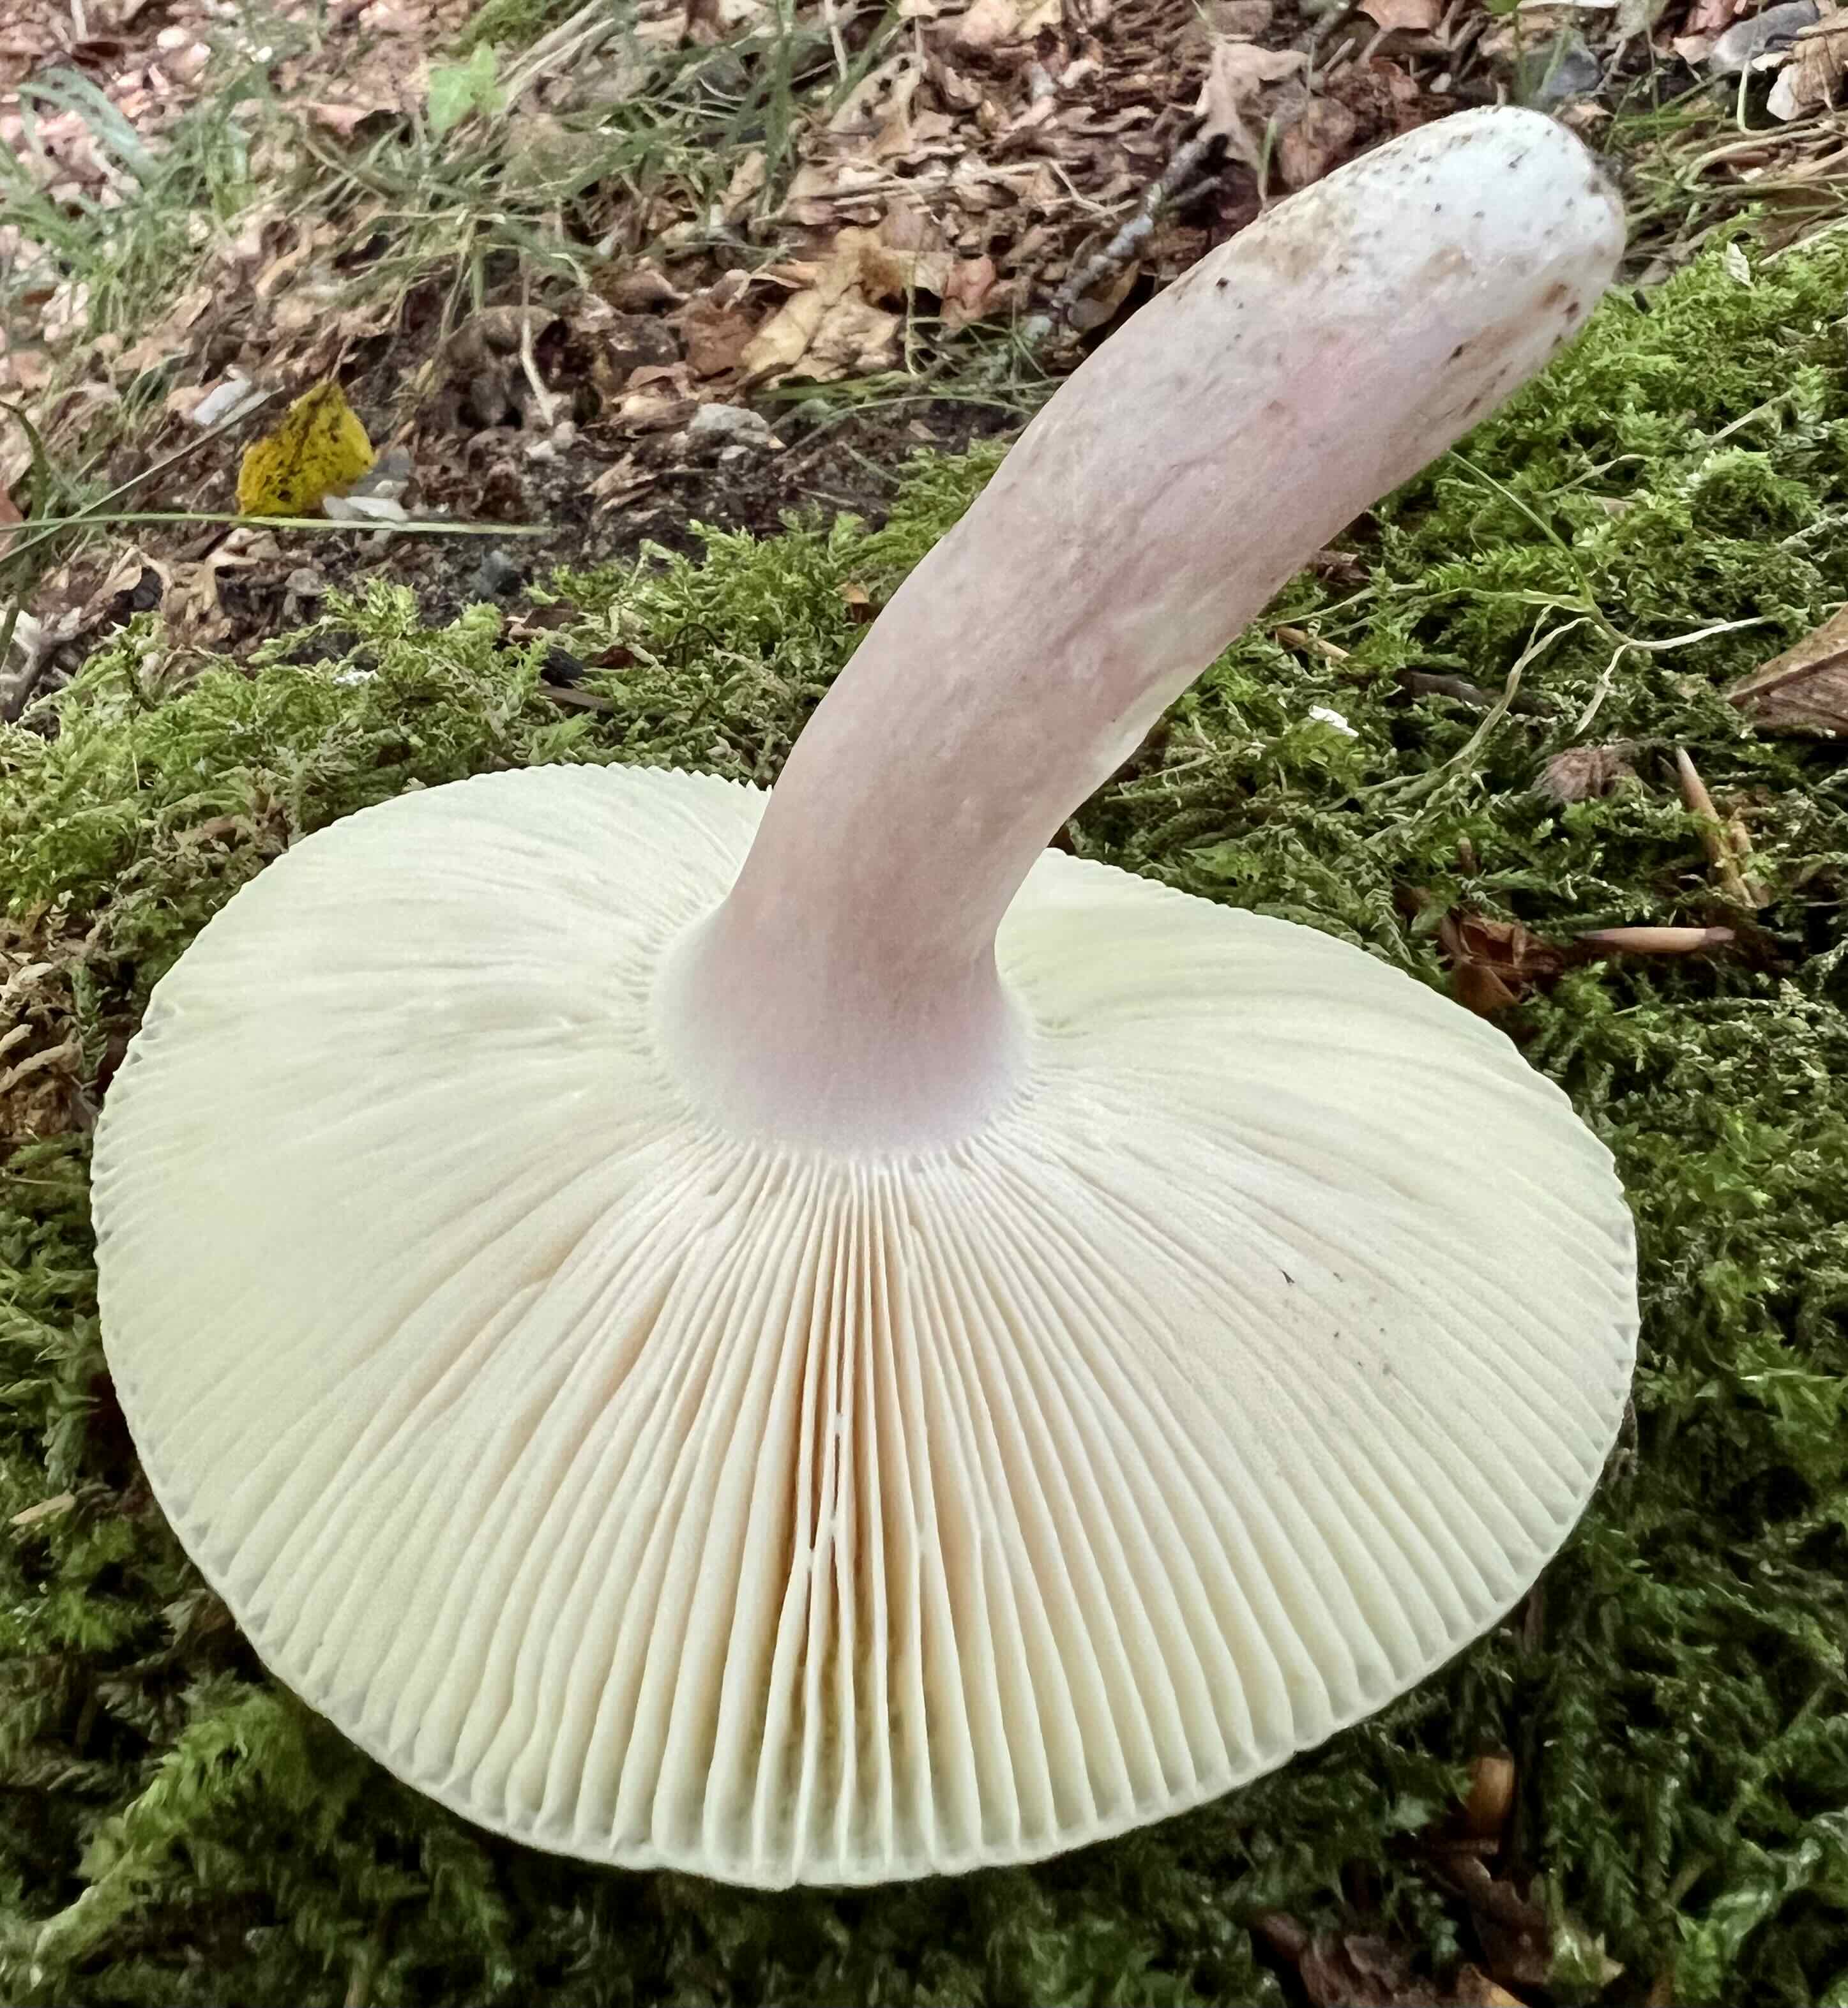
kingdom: Fungi
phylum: Basidiomycota
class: Agaricomycetes
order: Russulales
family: Russulaceae
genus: Russula
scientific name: Russula violeipes
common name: ferskengul skørhat
